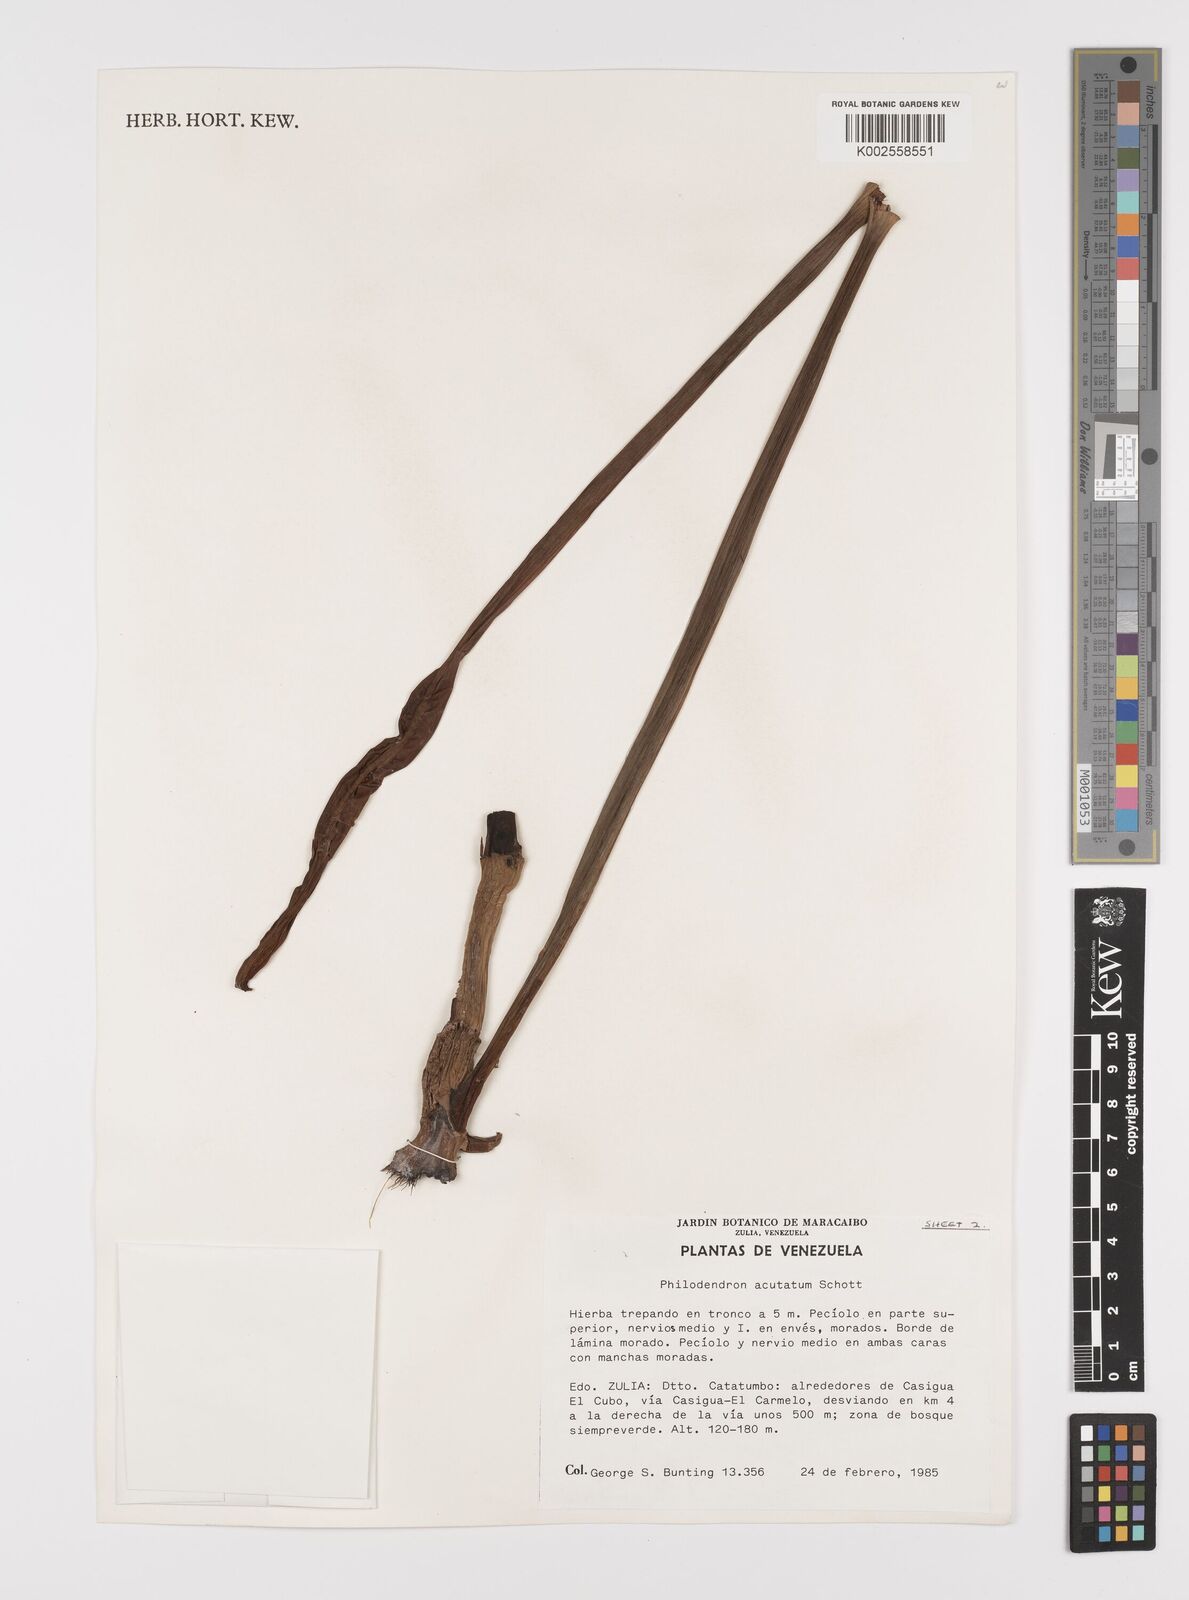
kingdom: Plantae
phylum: Tracheophyta
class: Liliopsida
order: Alismatales
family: Araceae
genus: Philodendron
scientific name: Philodendron quinquenervium
